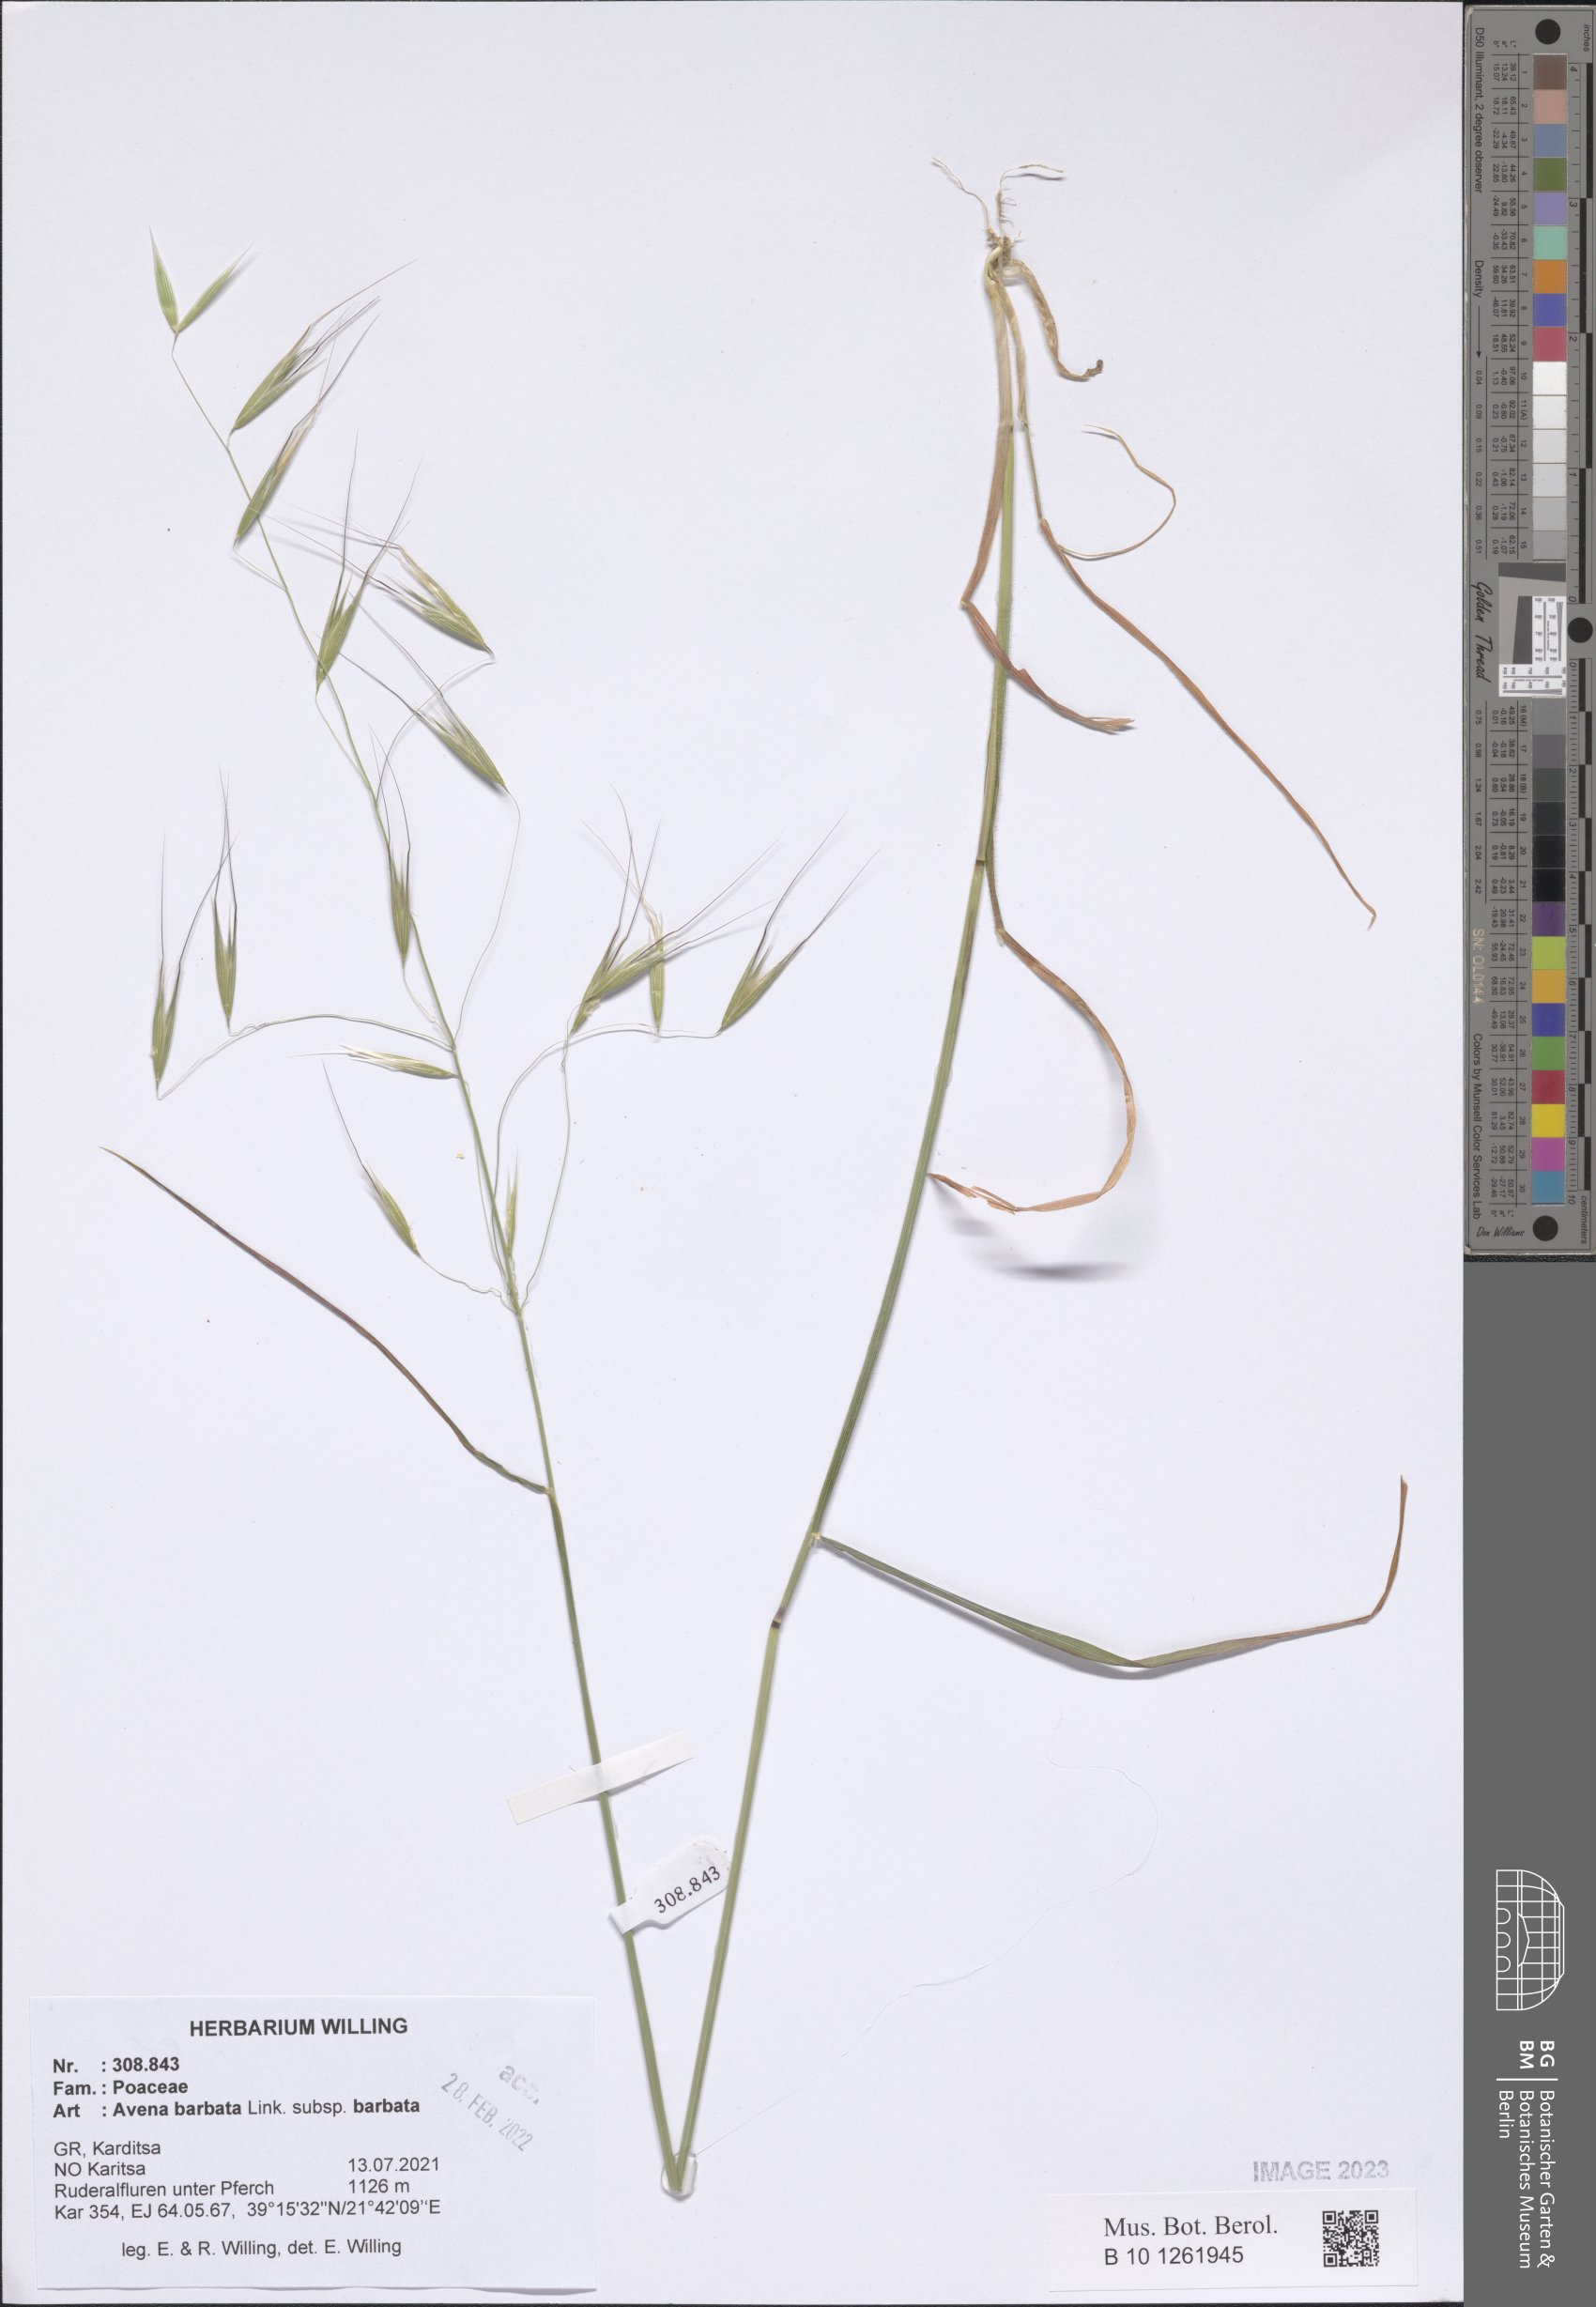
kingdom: Plantae
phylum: Tracheophyta
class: Liliopsida
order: Poales
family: Poaceae
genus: Avena
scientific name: Avena barbata
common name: Slender oat
